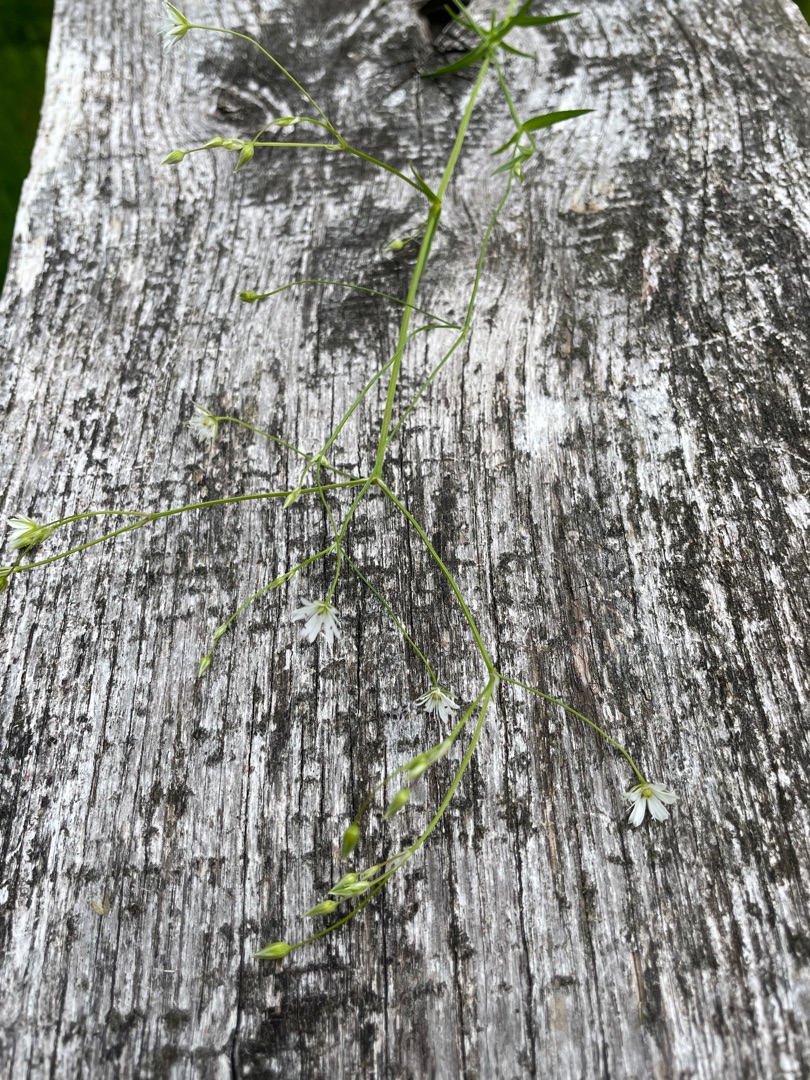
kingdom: Plantae
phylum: Tracheophyta
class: Magnoliopsida
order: Caryophyllales
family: Caryophyllaceae
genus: Stellaria
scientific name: Stellaria graminea
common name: Græsbladet fladstjerne
